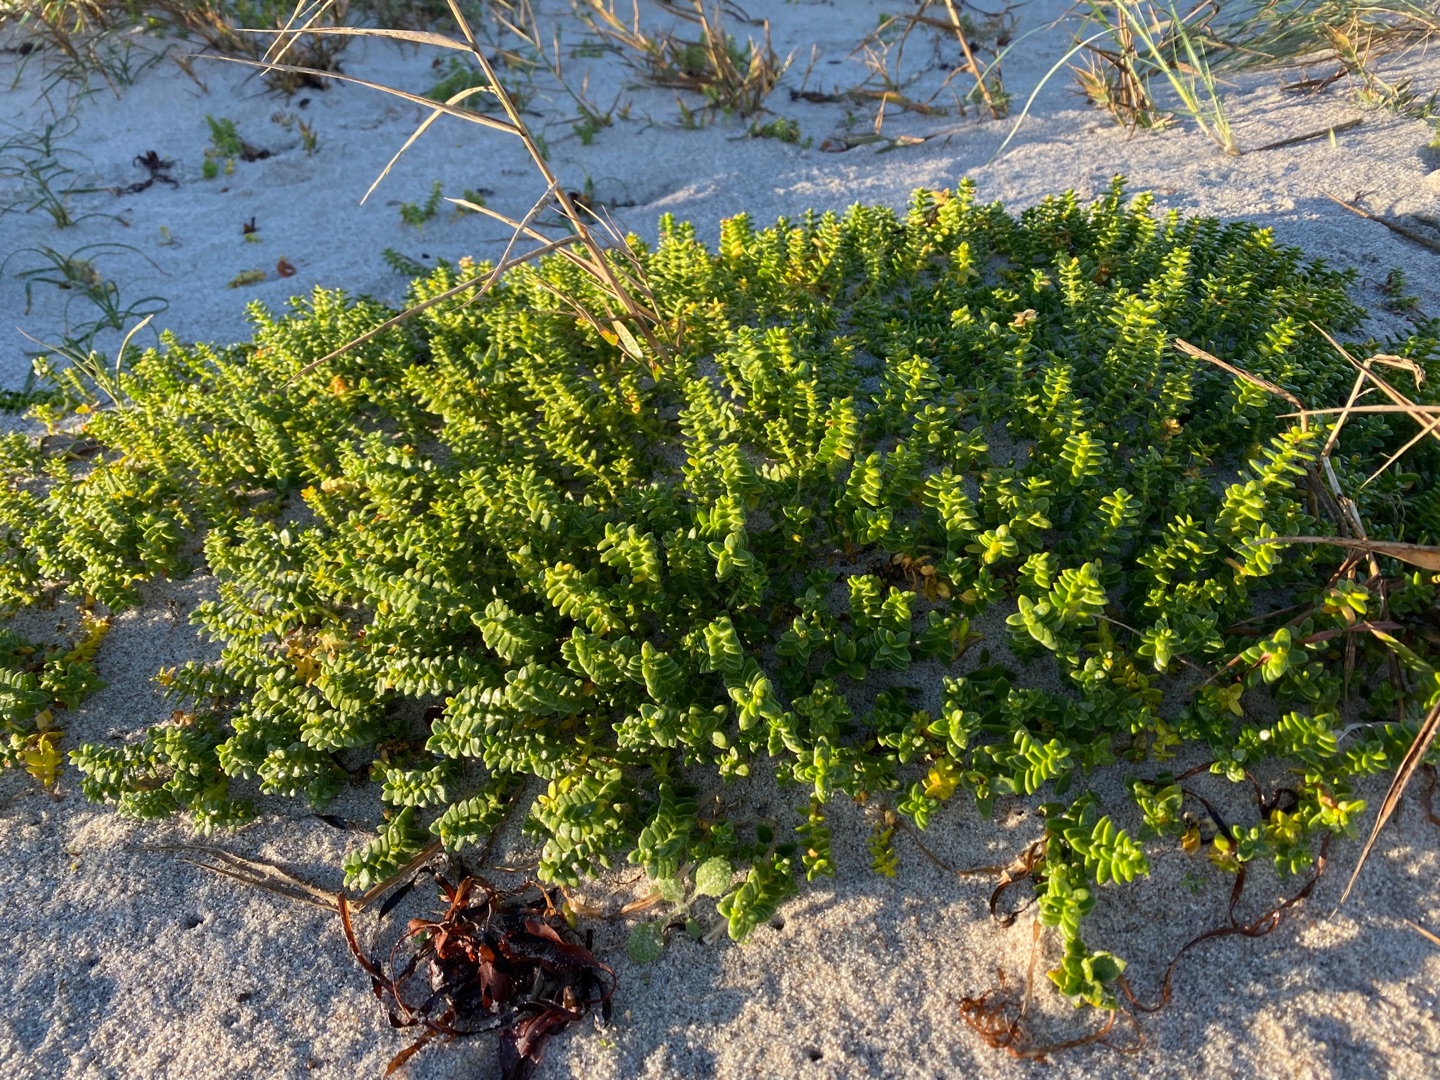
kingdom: Plantae
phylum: Tracheophyta
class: Magnoliopsida
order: Caryophyllales
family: Caryophyllaceae
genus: Honckenya
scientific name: Honckenya peploides
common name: Strandarve
